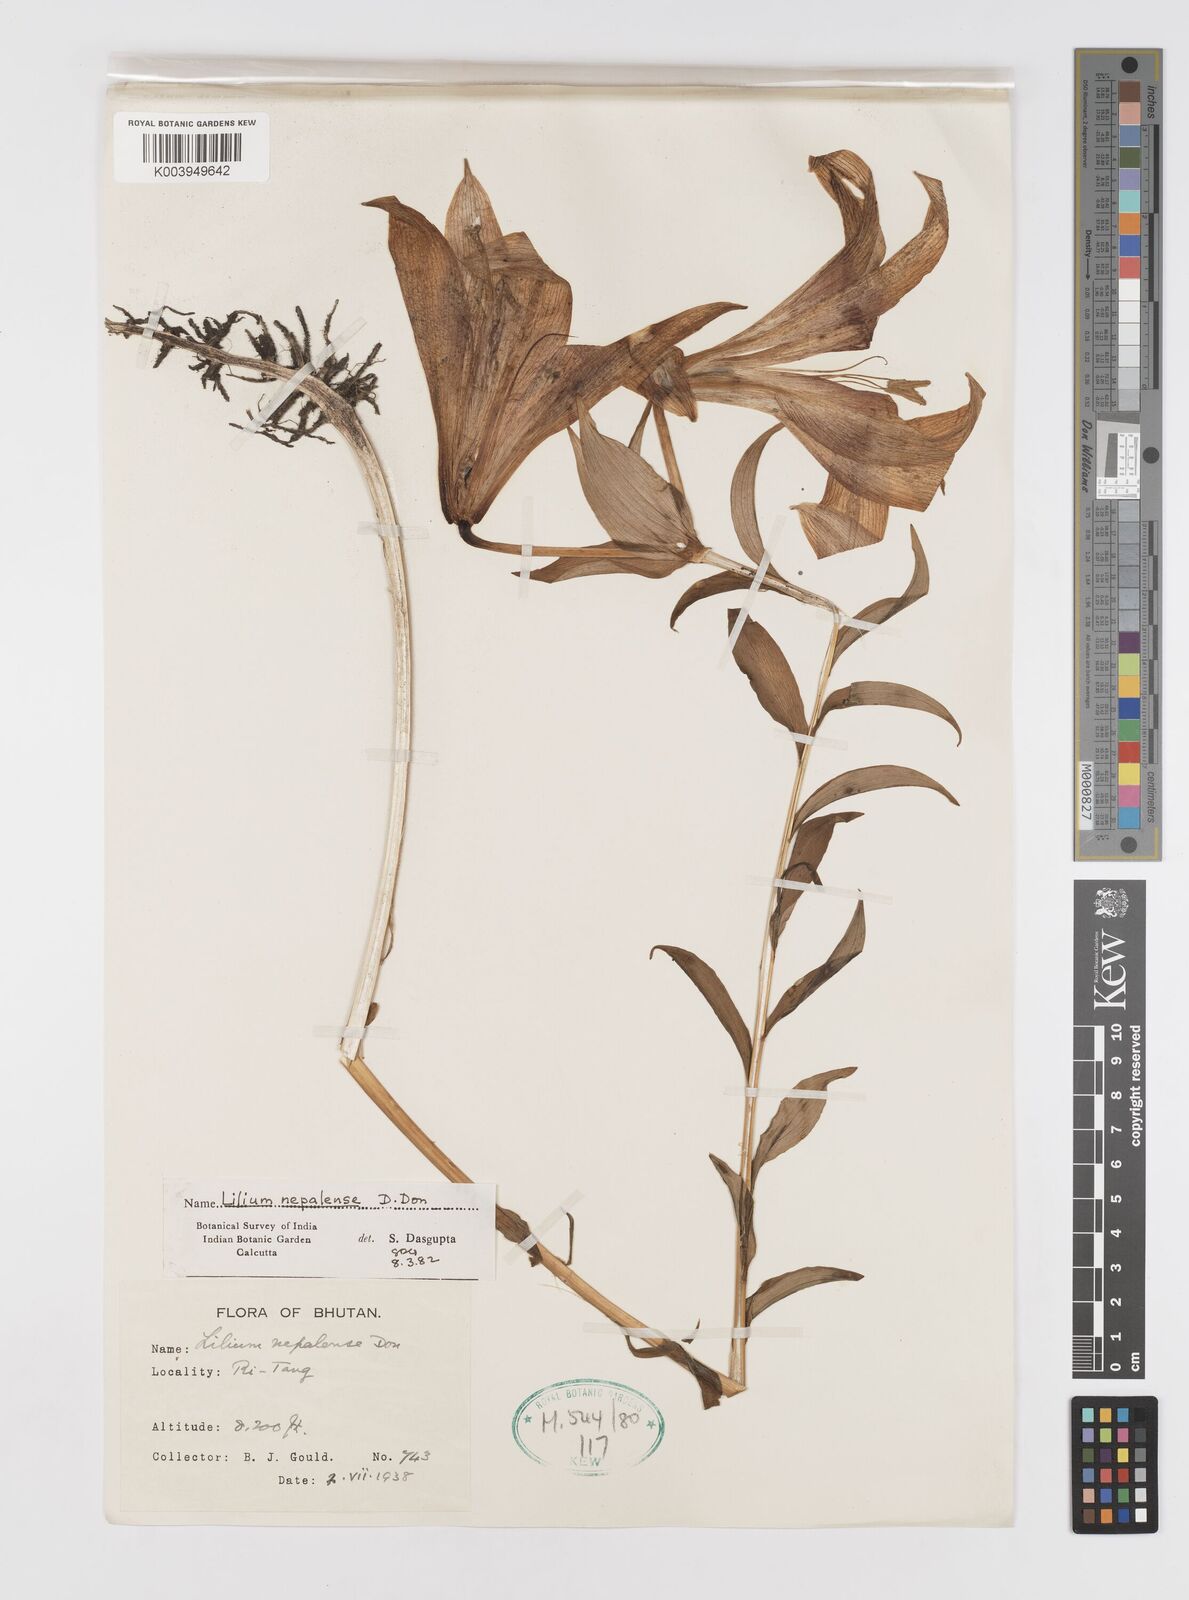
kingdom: Plantae
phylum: Tracheophyta
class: Liliopsida
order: Liliales
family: Liliaceae
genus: Lilium
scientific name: Lilium nepalense
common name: Nepal lily
